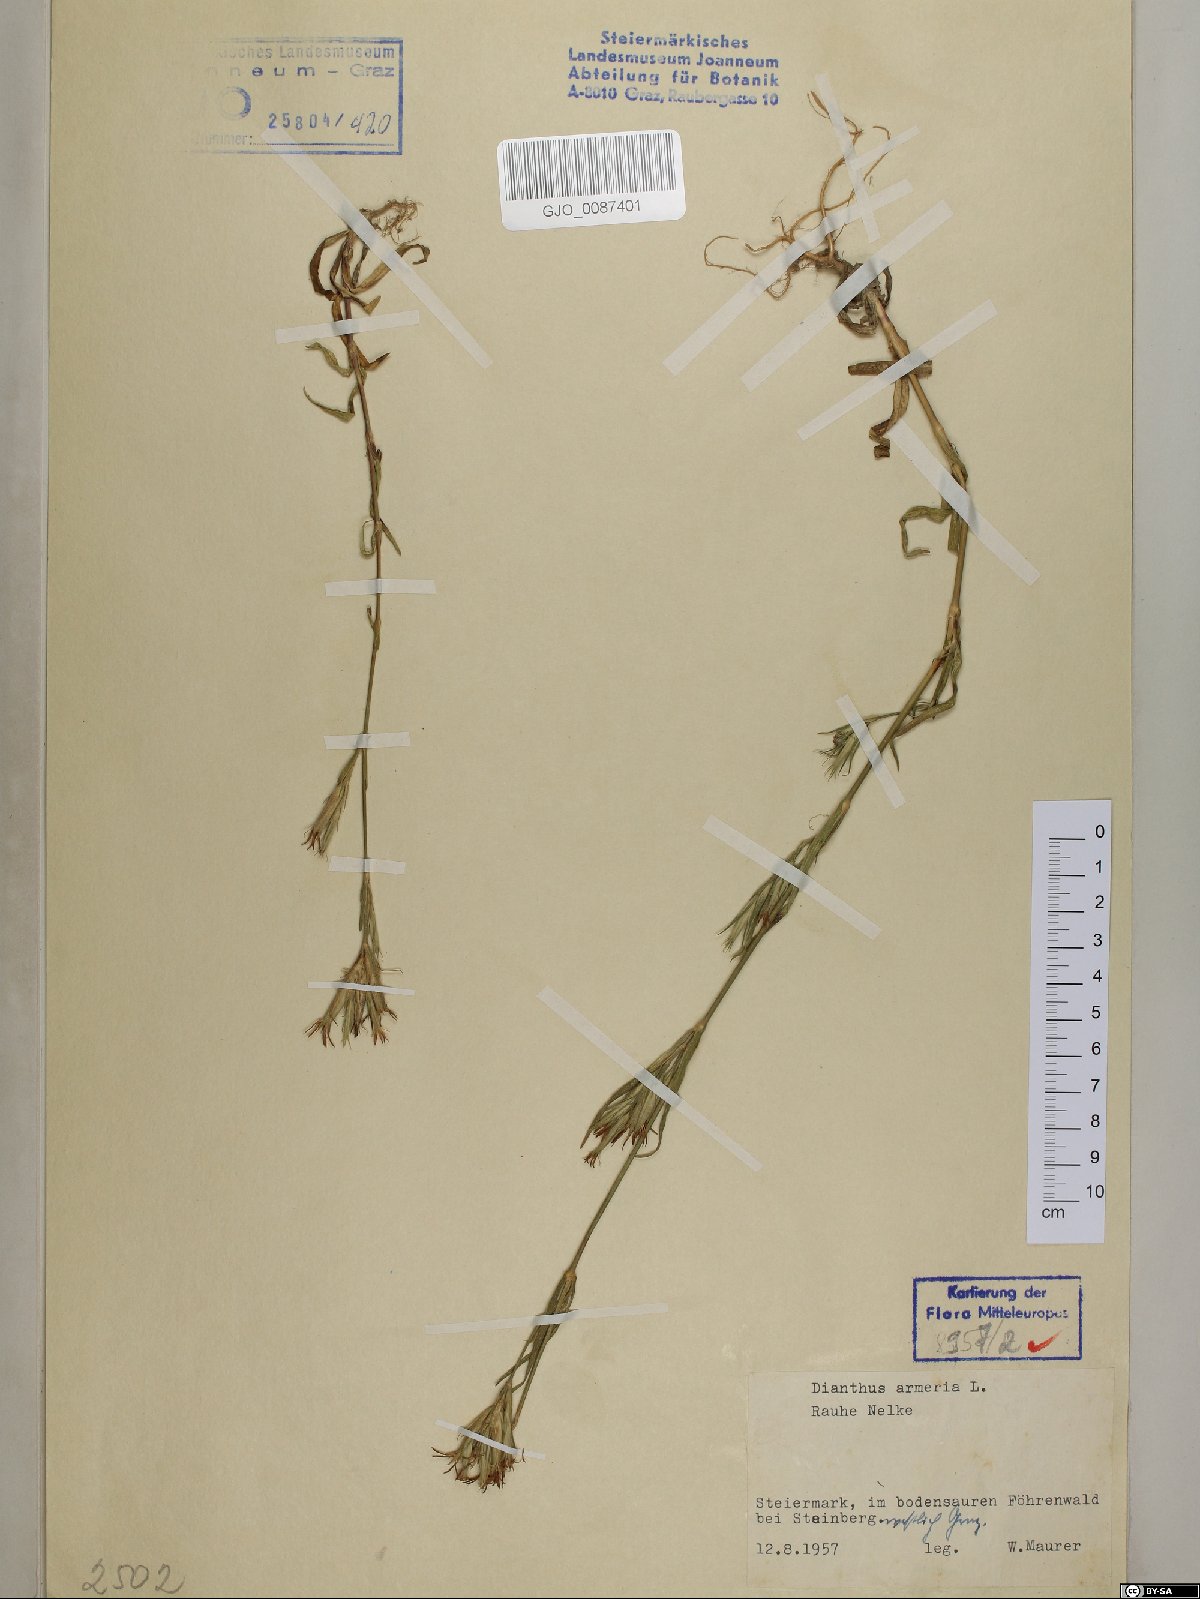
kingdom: Plantae
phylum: Tracheophyta
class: Magnoliopsida
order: Caryophyllales
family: Caryophyllaceae
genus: Dianthus
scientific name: Dianthus armeria
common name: Deptford pink
